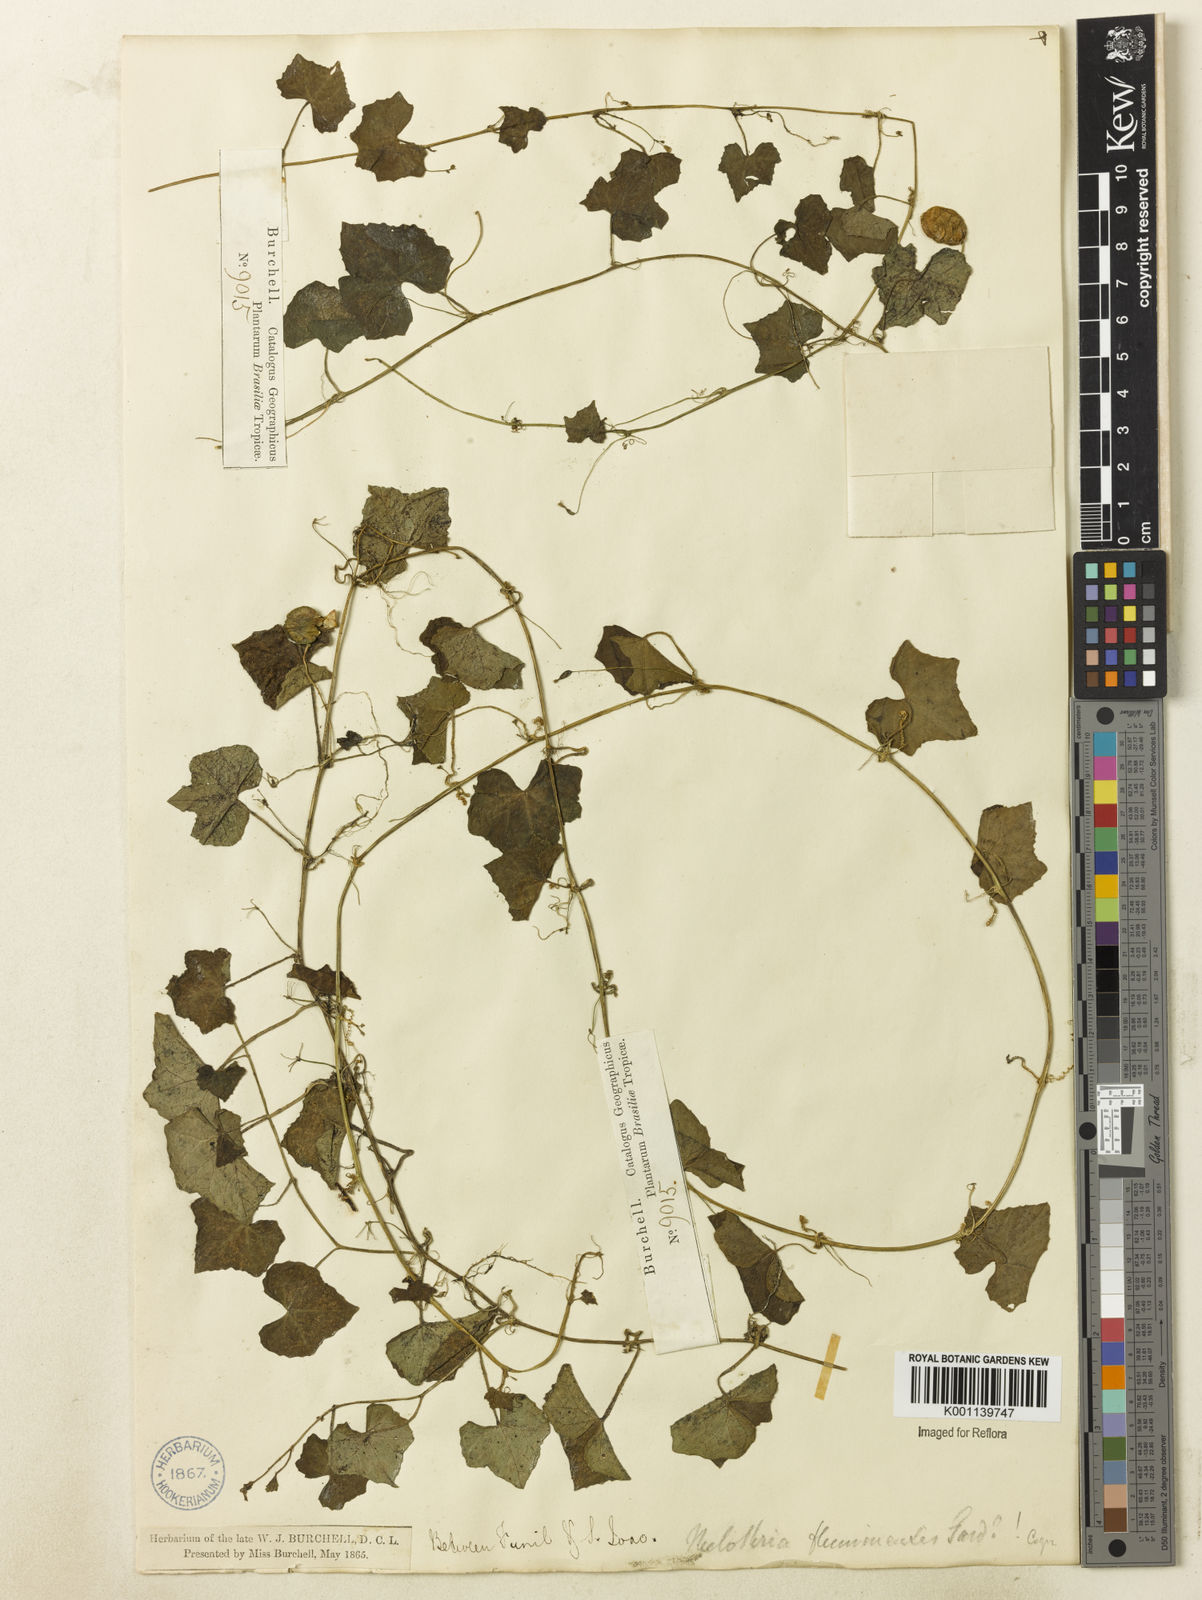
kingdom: Plantae
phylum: Tracheophyta
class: Magnoliopsida
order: Cucurbitales
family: Cucurbitaceae
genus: Melothria
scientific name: Melothria pendula
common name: Creeping-cucumber
